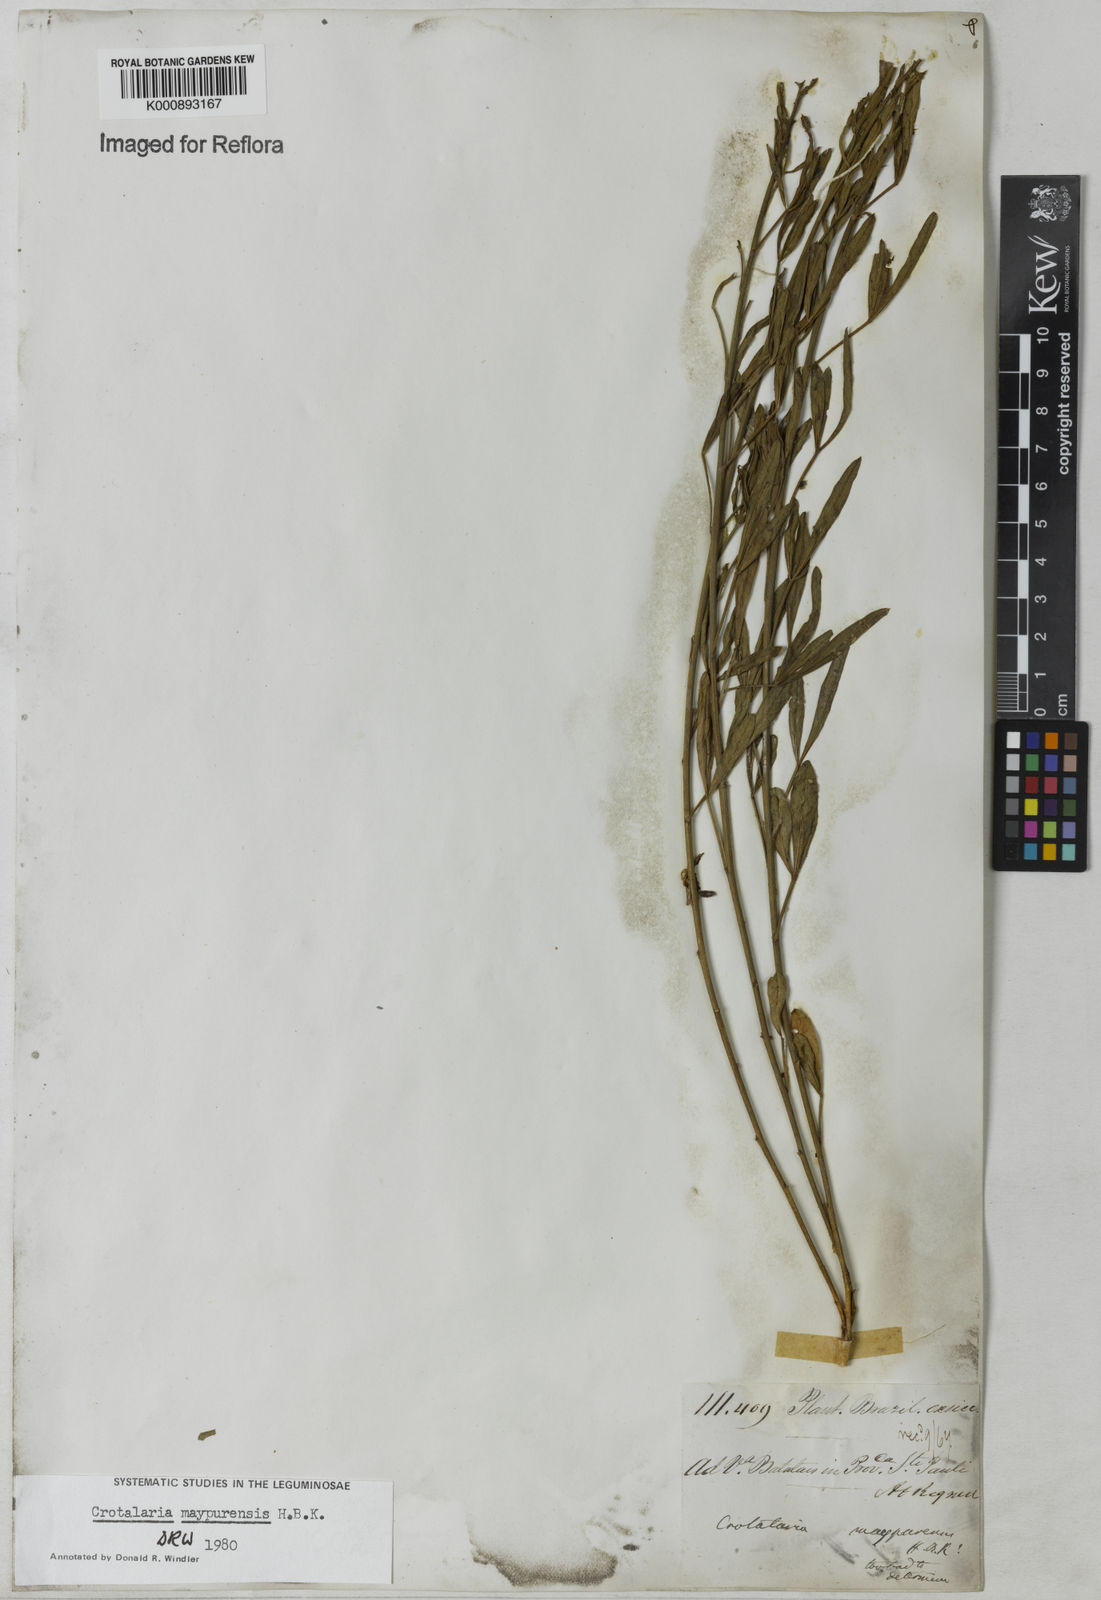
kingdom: Plantae
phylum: Tracheophyta
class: Magnoliopsida
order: Fabales
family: Fabaceae
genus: Crotalaria
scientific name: Crotalaria maypurensis
